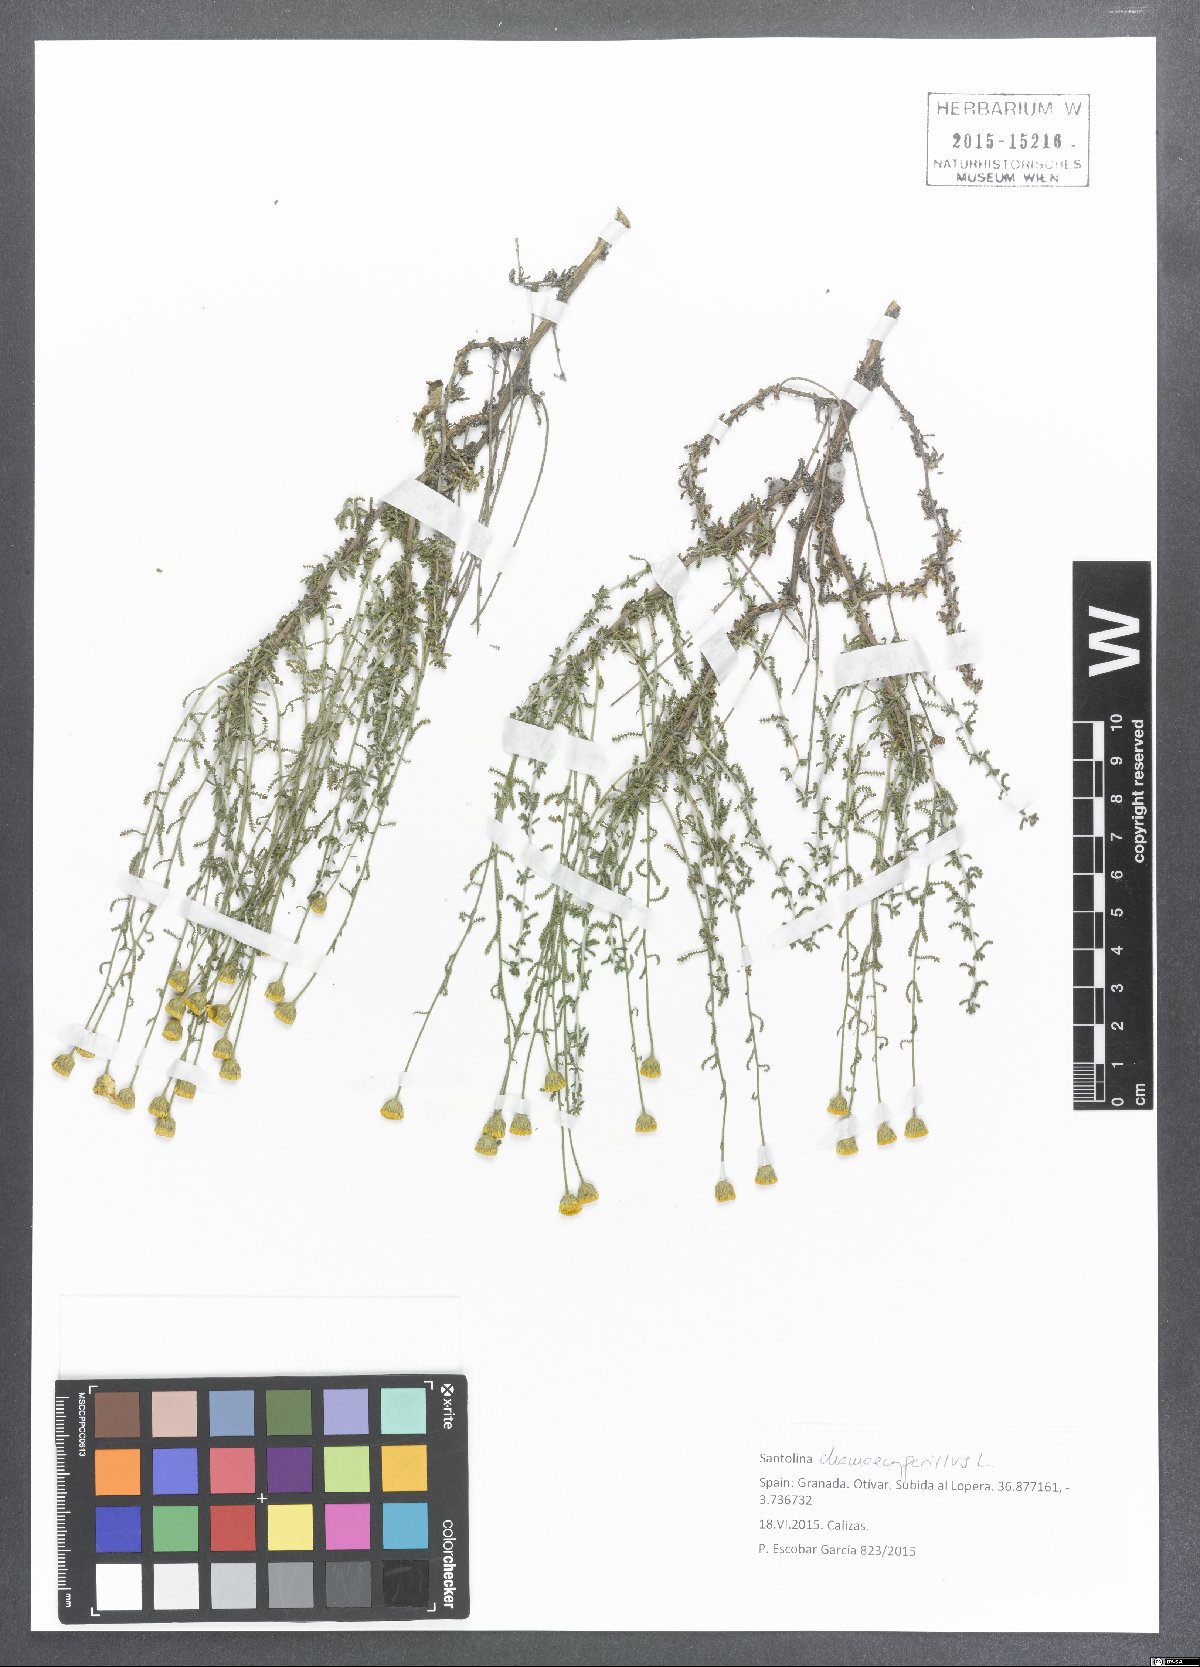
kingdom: Plantae
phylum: Tracheophyta
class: Magnoliopsida
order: Asterales
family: Asteraceae
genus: Santolina
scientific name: Santolina chamaecyparissus
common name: Lavender-cotton
